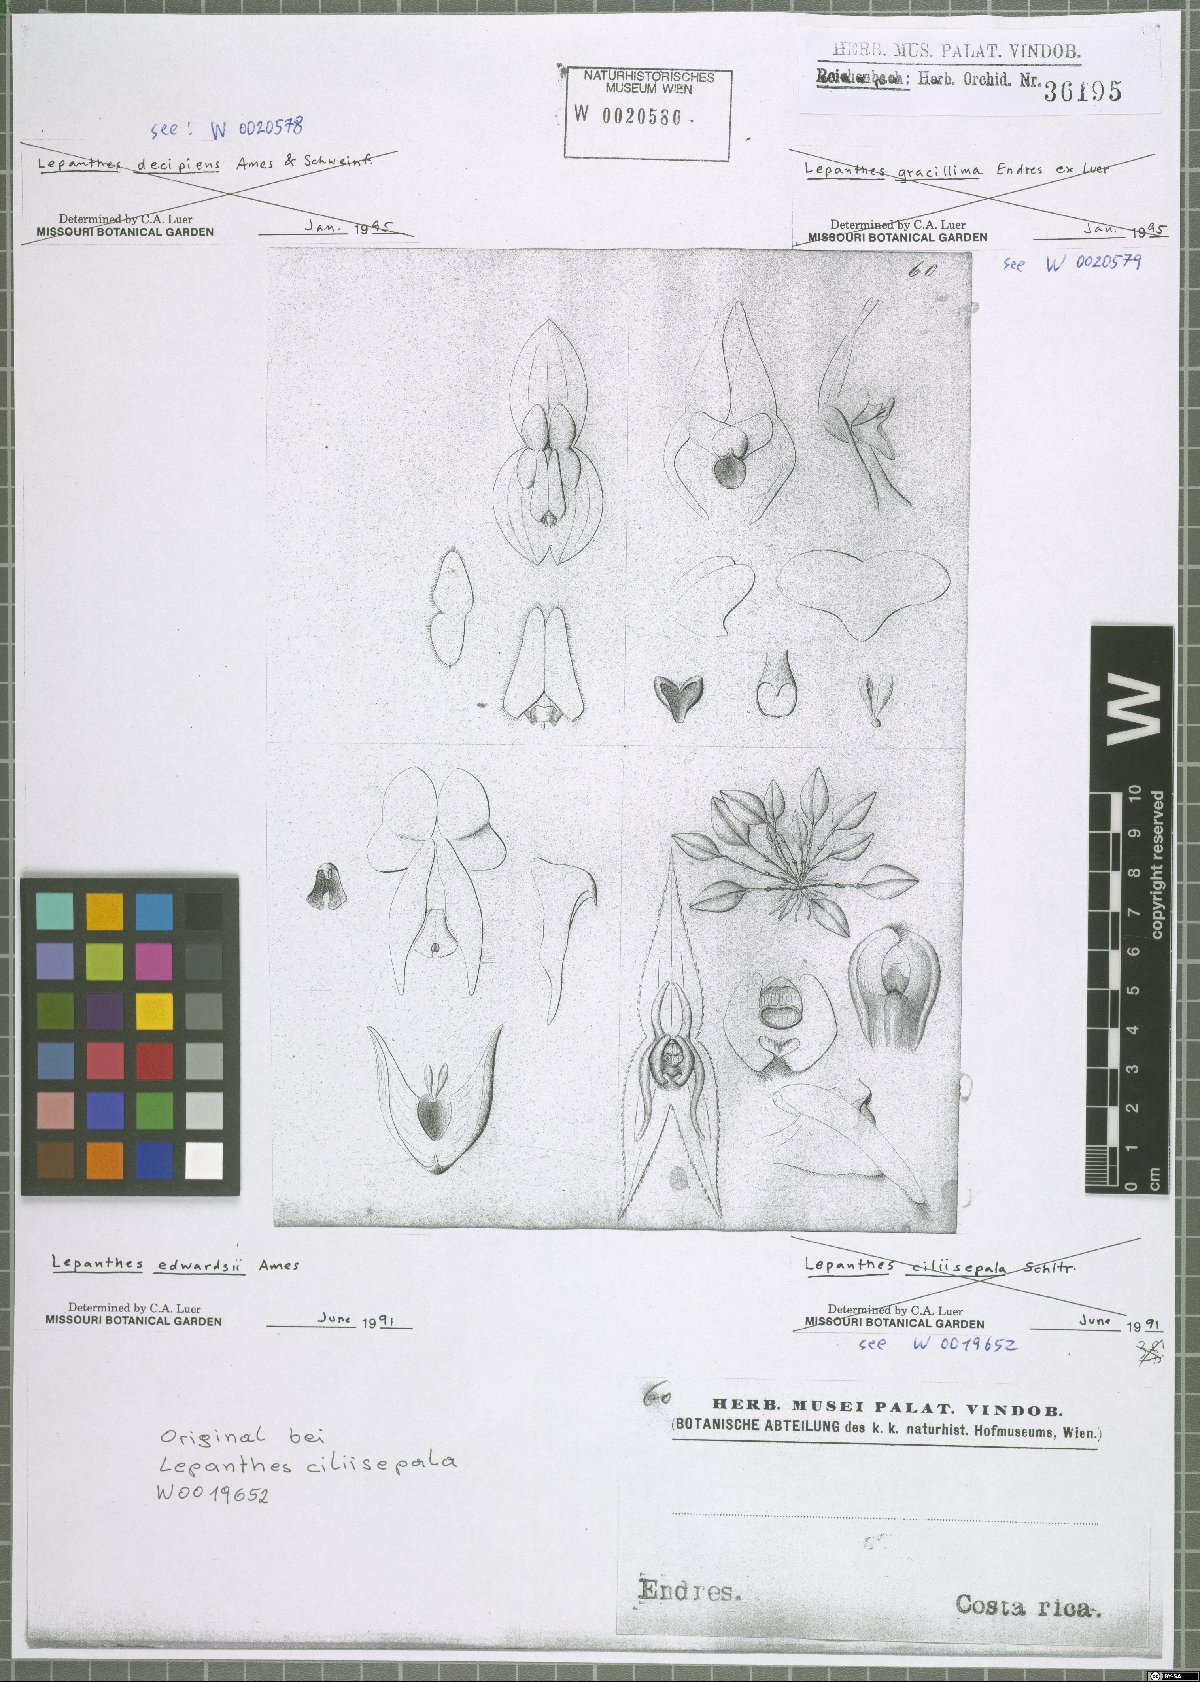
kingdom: Plantae
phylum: Tracheophyta
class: Liliopsida
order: Asparagales
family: Orchidaceae
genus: Lepanthes
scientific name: Lepanthes edwardsii
